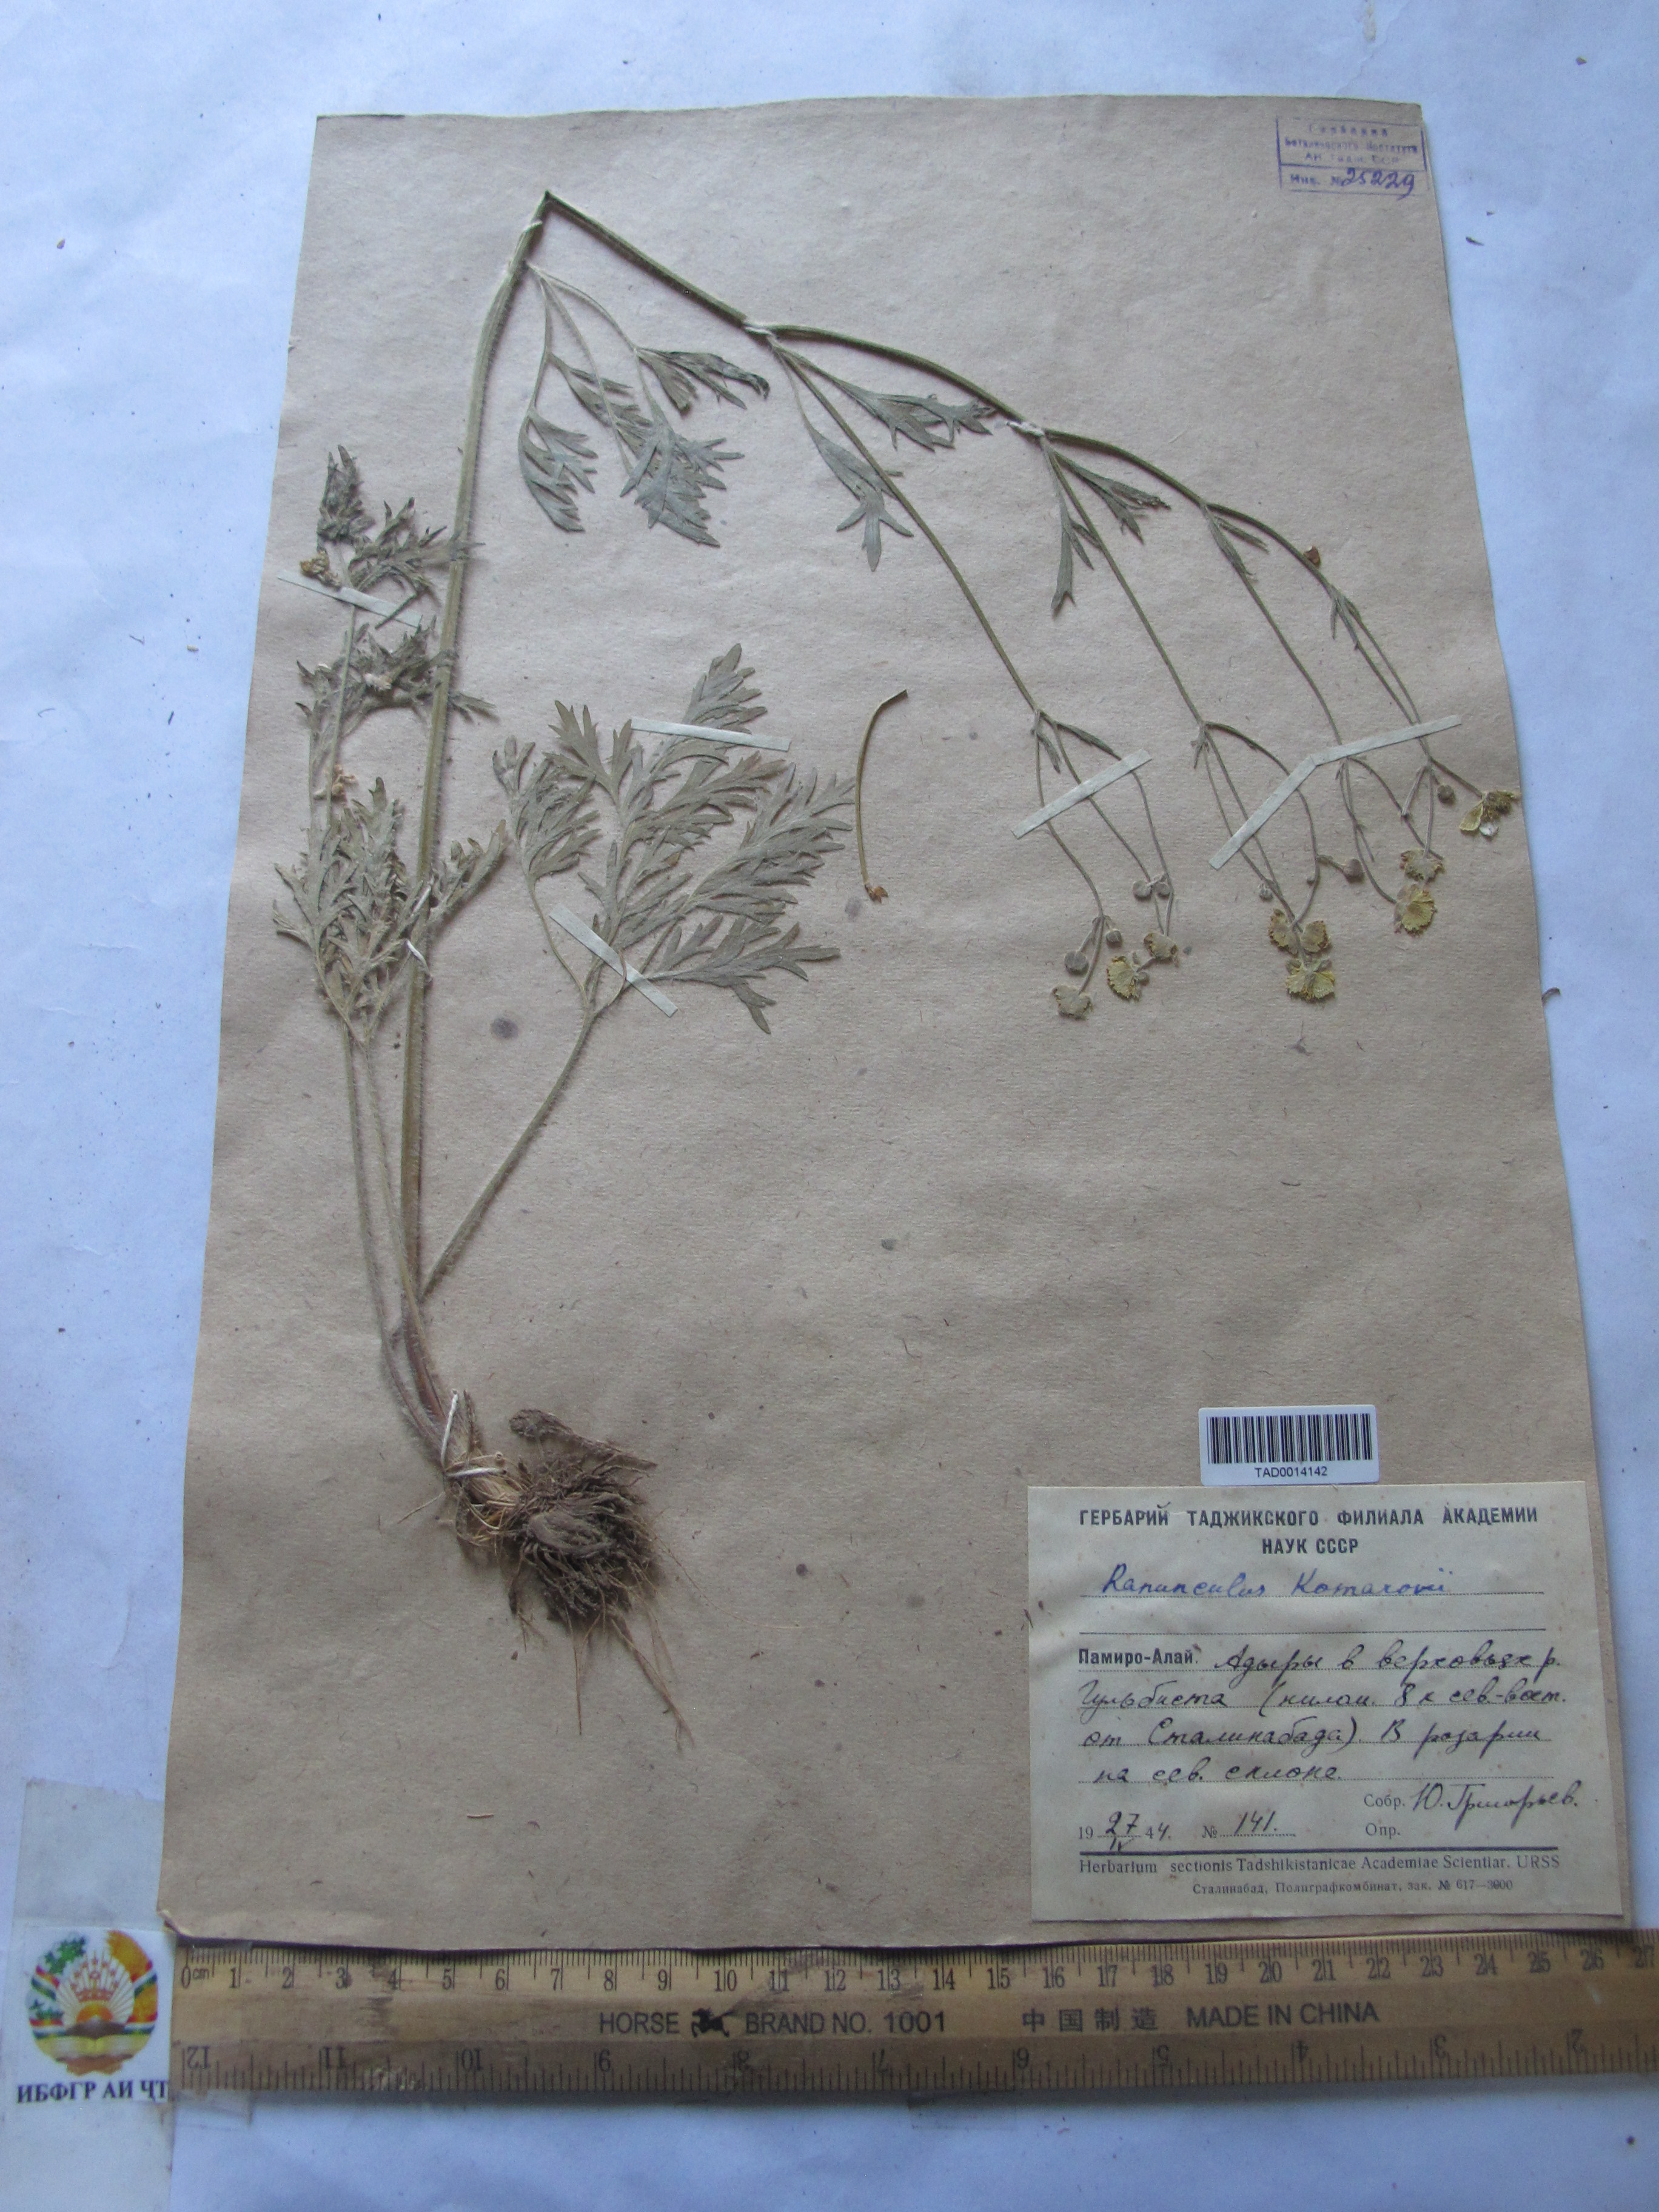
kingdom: Plantae
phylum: Tracheophyta
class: Magnoliopsida
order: Ranunculales
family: Ranunculaceae
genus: Ranunculus
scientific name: Ranunculus komarovii
